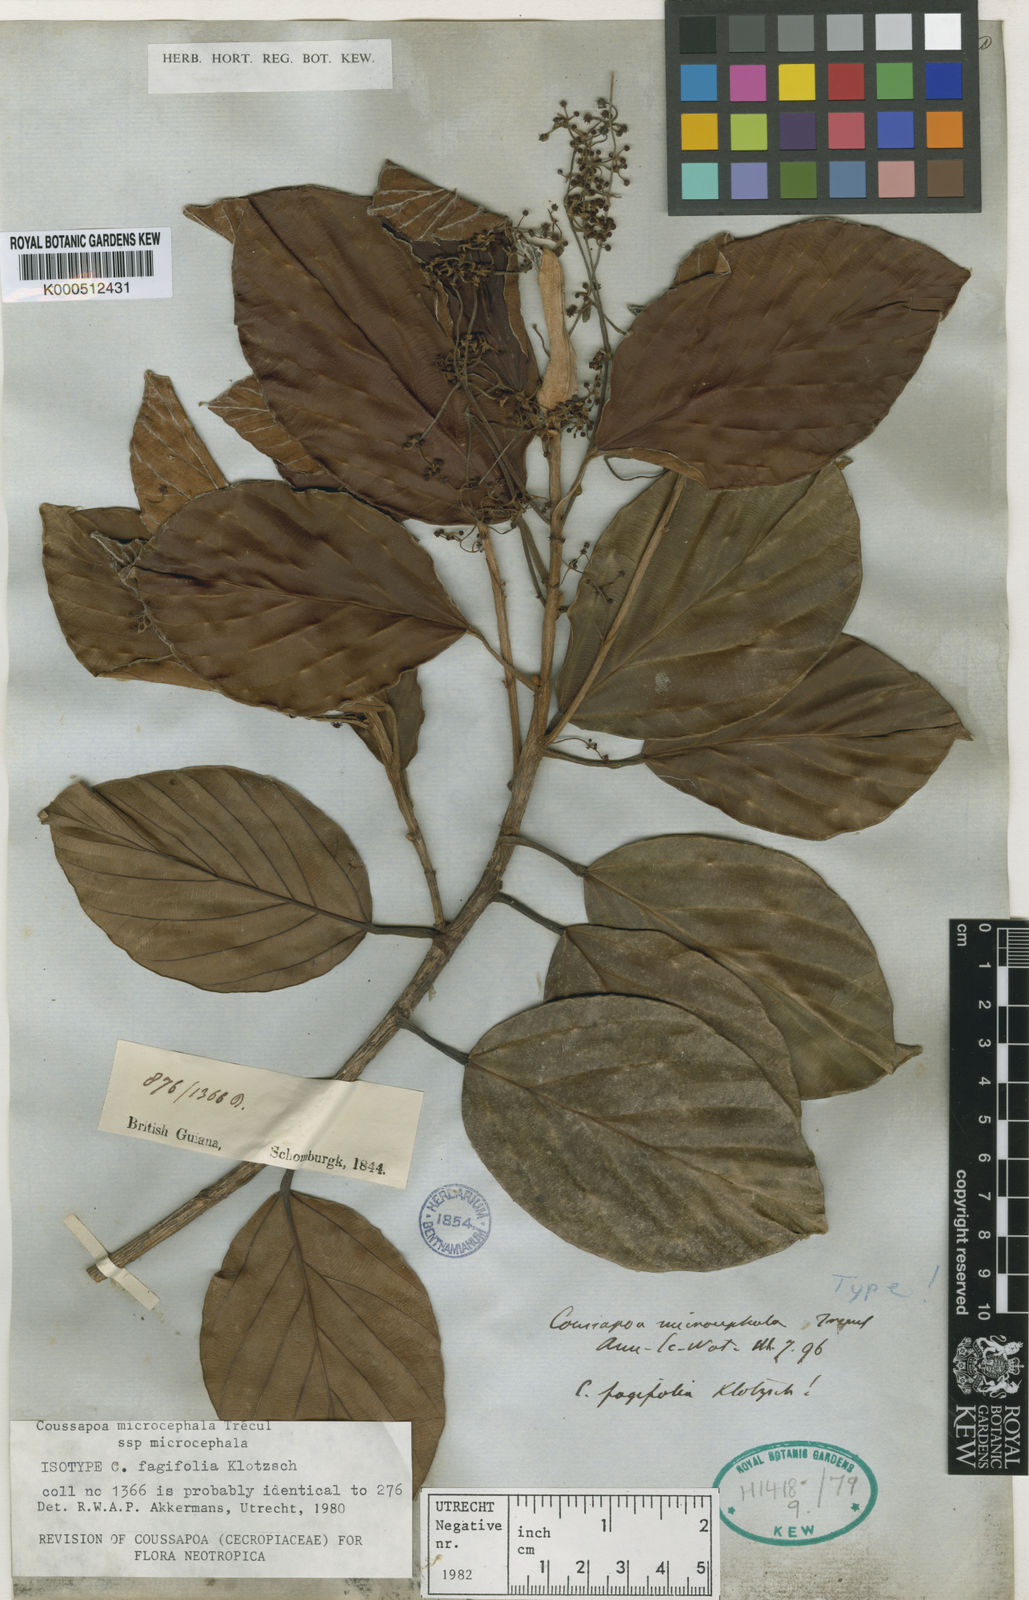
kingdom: Plantae
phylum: Tracheophyta
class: Magnoliopsida
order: Rosales
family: Urticaceae
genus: Coussapoa
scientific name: Coussapoa
